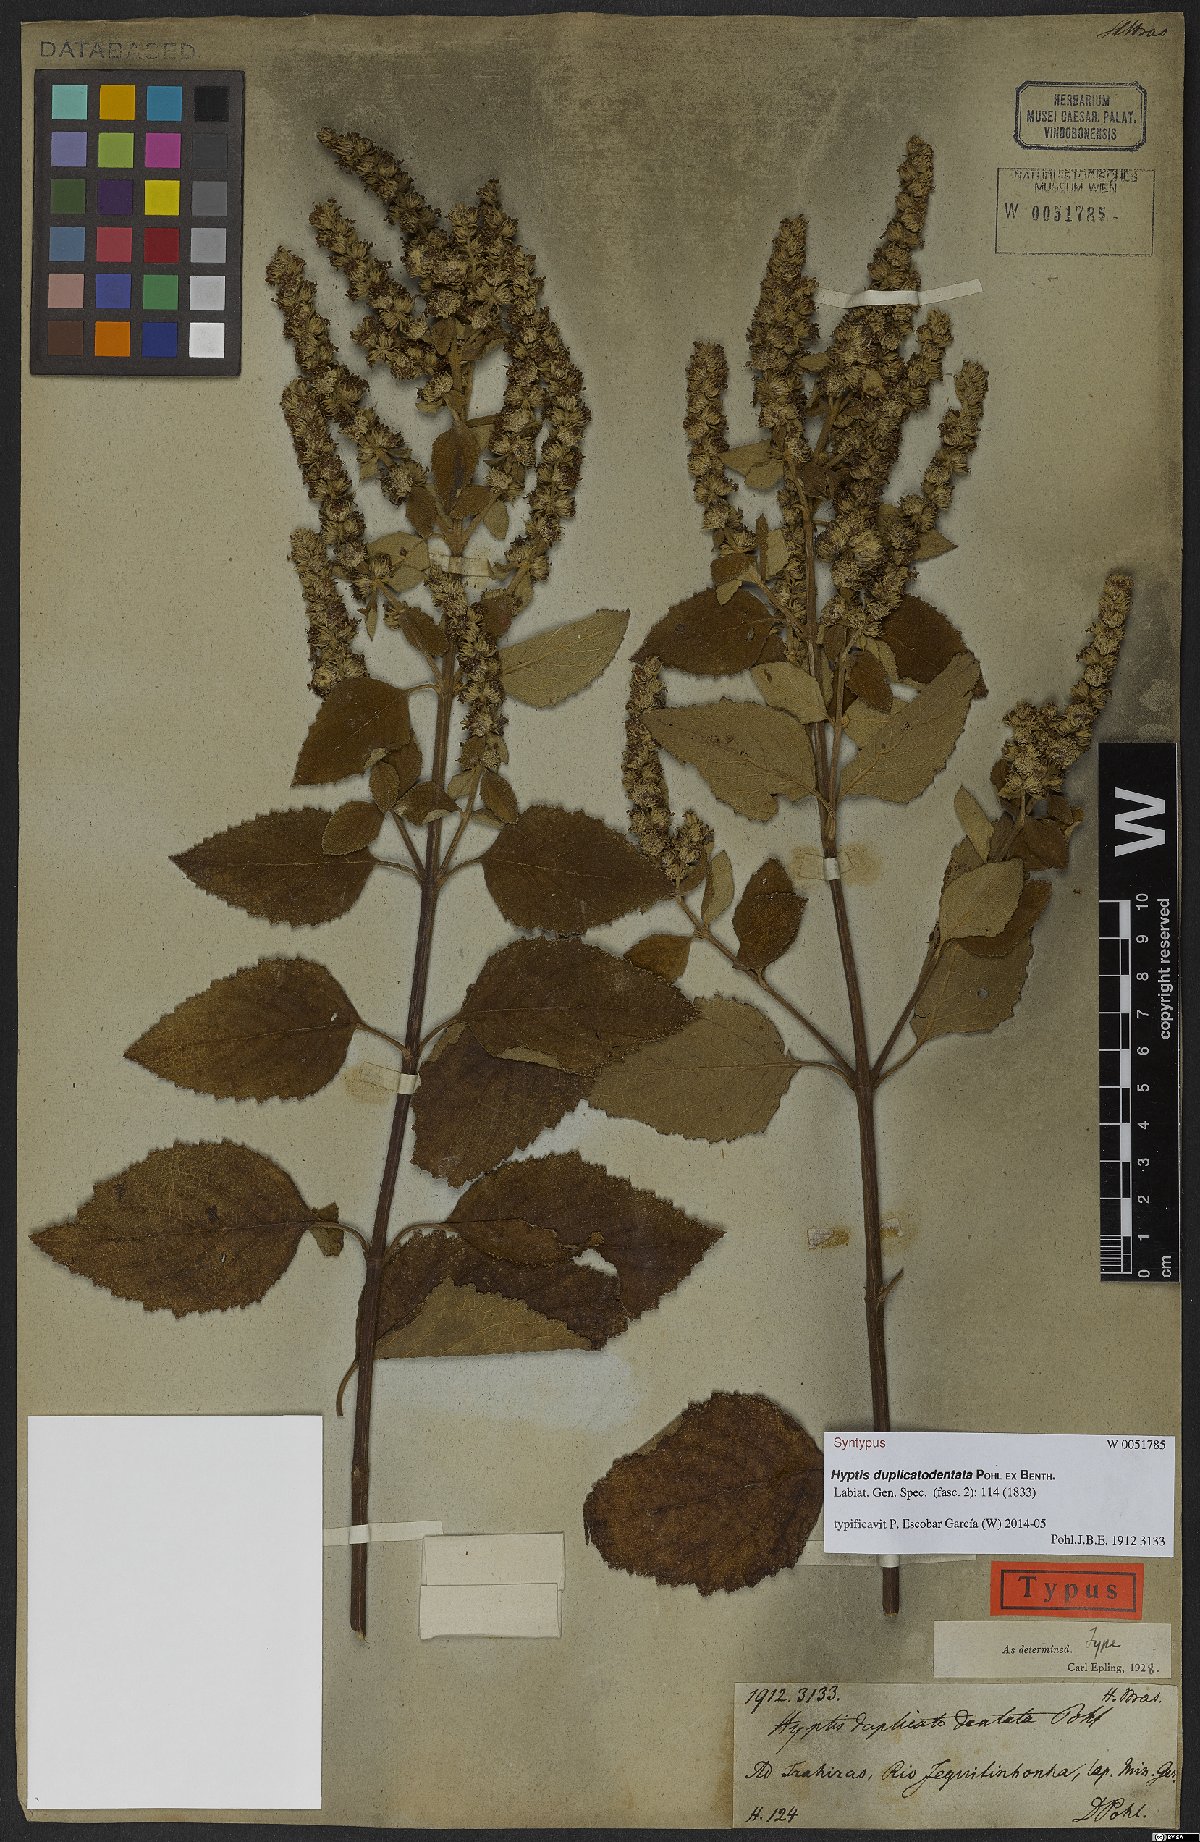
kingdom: Plantae
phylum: Tracheophyta
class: Magnoliopsida
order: Lamiales
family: Lamiaceae
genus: Cantinoa
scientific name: Cantinoa duplicatodentata
